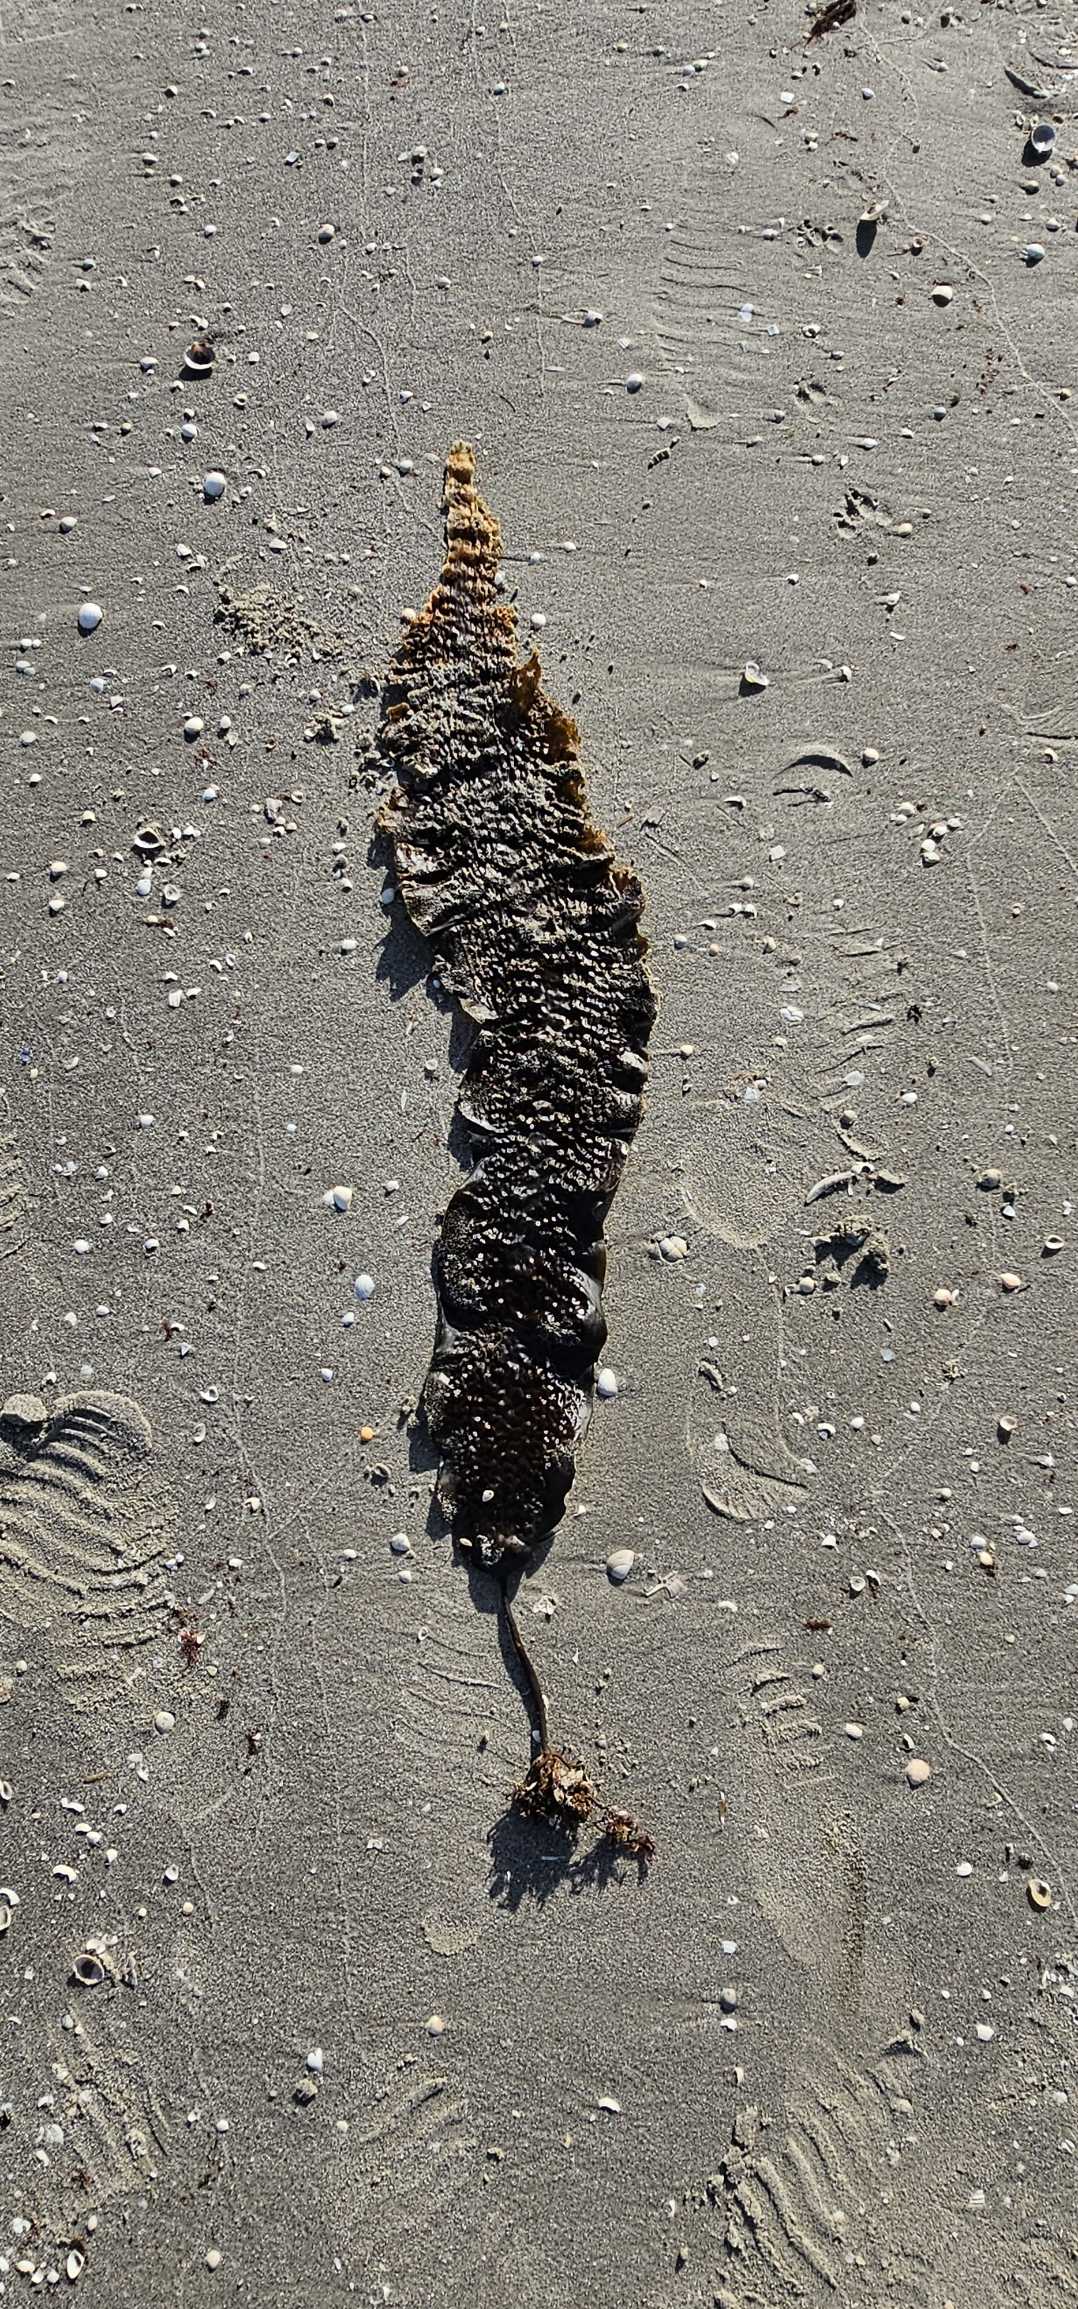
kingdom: Chromista
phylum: Ochrophyta
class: Phaeophyceae
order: Laminariales
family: Laminariaceae
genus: Saccharina
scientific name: Saccharina latissima
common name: Sukkertang
